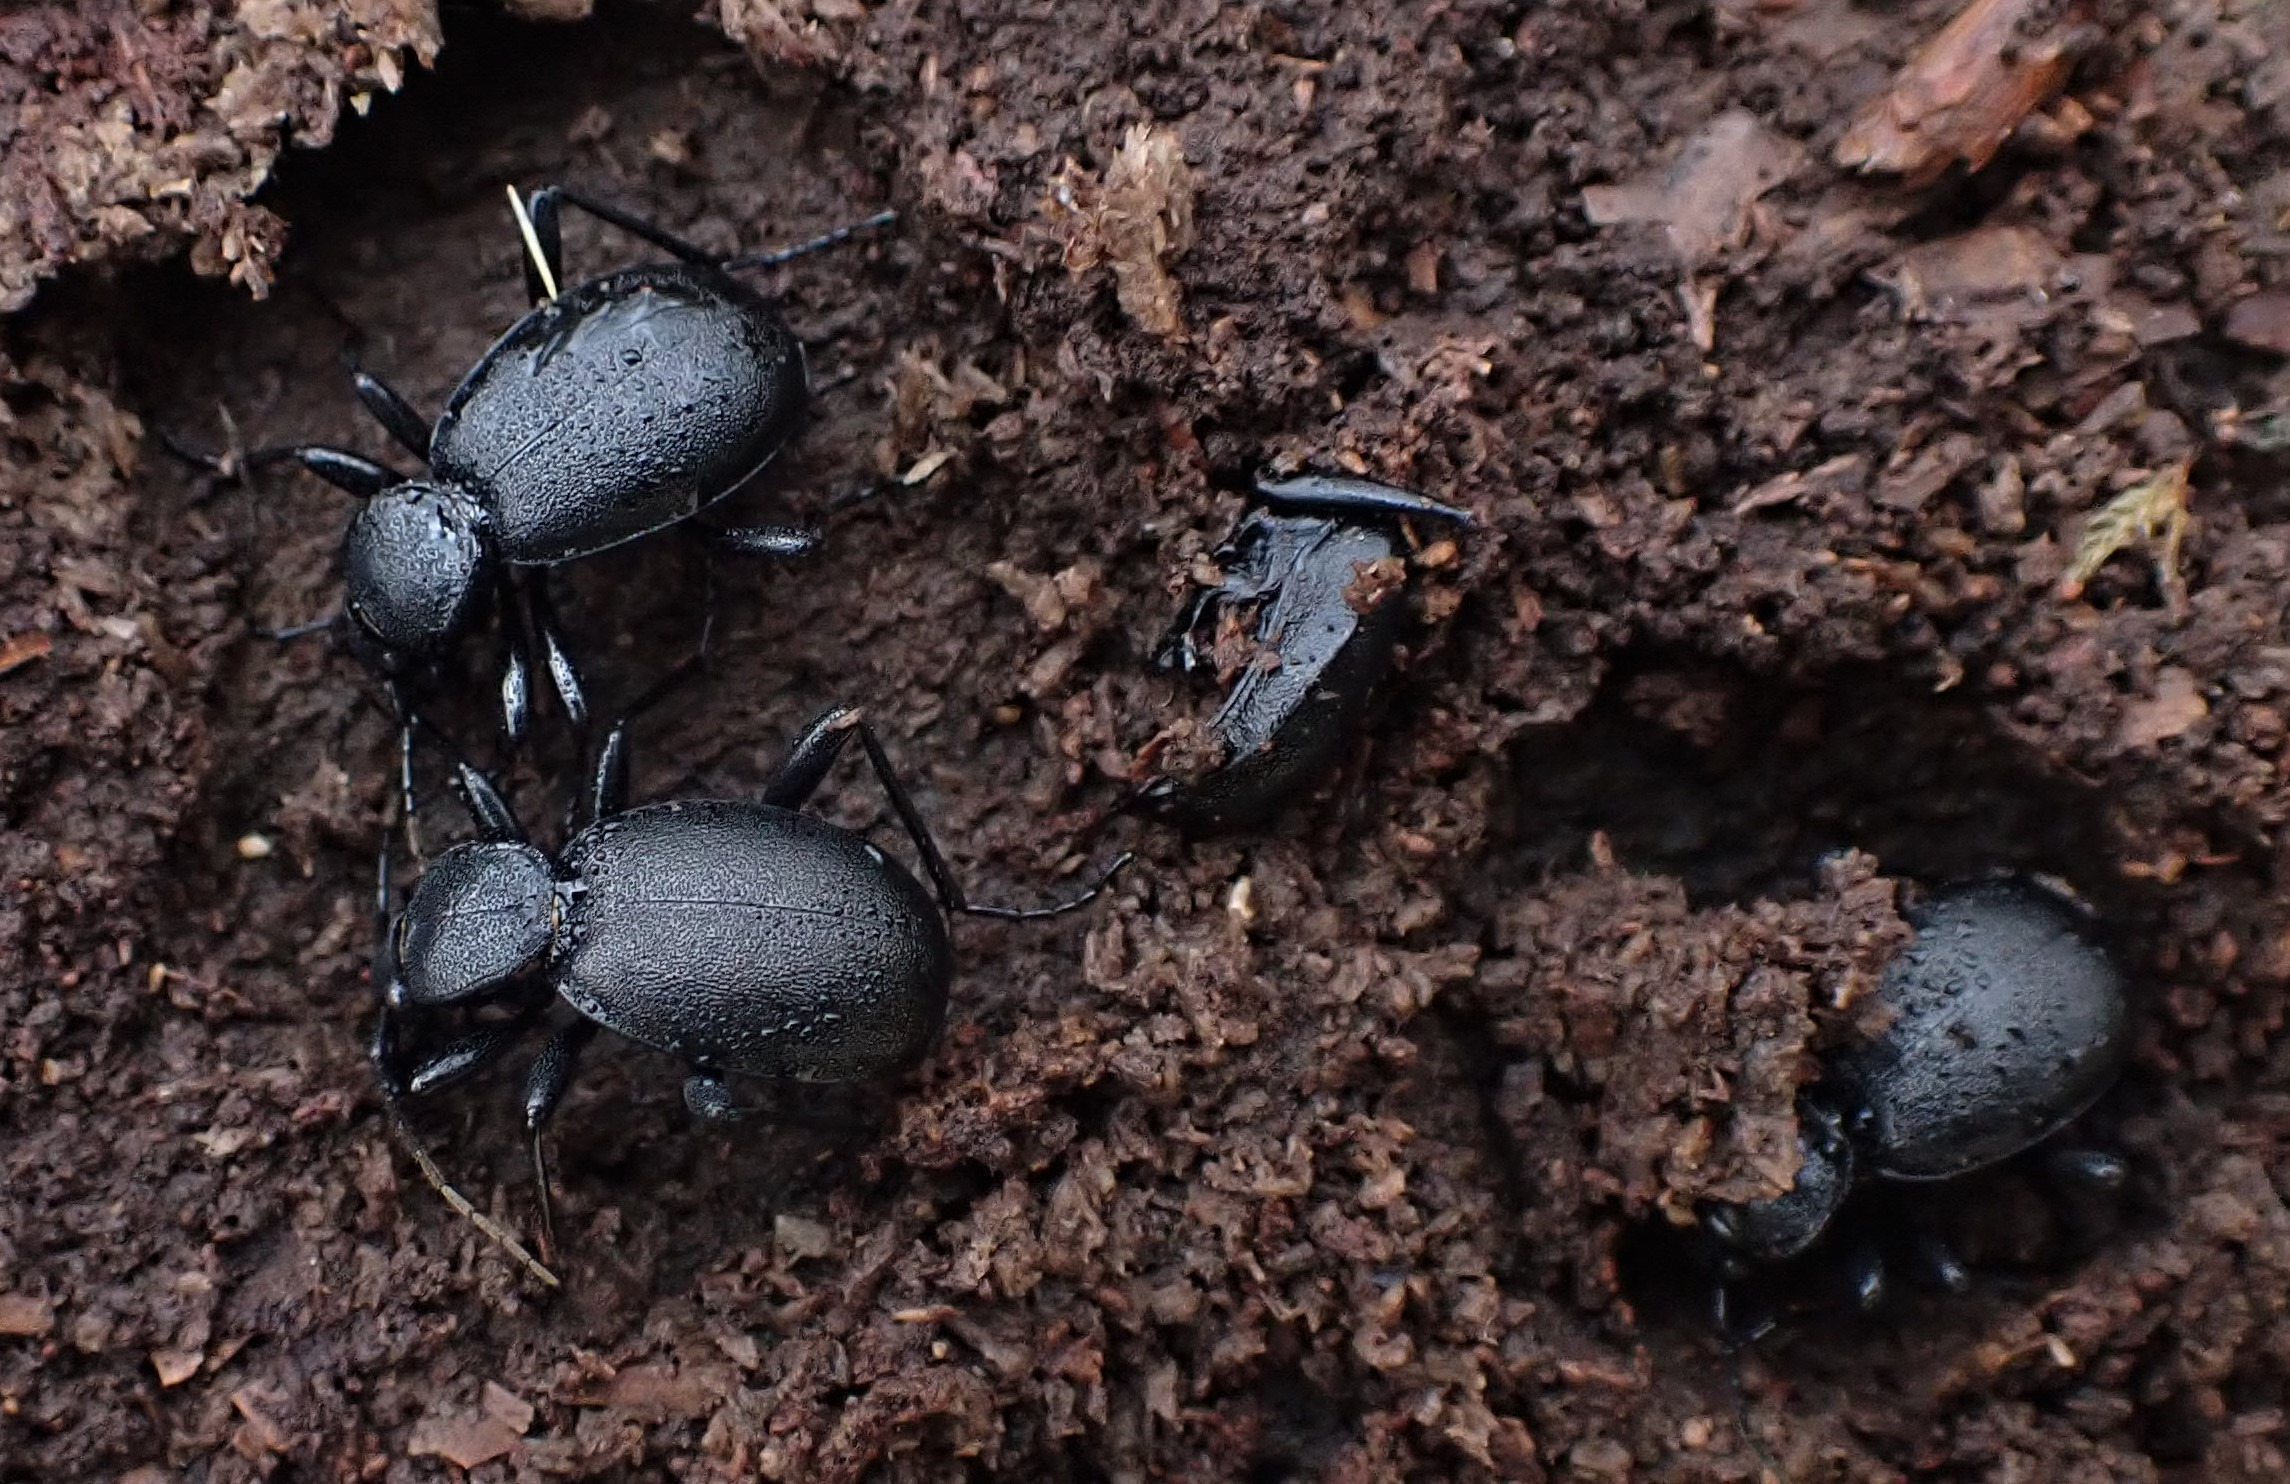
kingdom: Animalia
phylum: Arthropoda
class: Insecta
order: Coleoptera
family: Carabidae
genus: Cychrus
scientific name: Cychrus caraboides
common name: Sneglerøver
